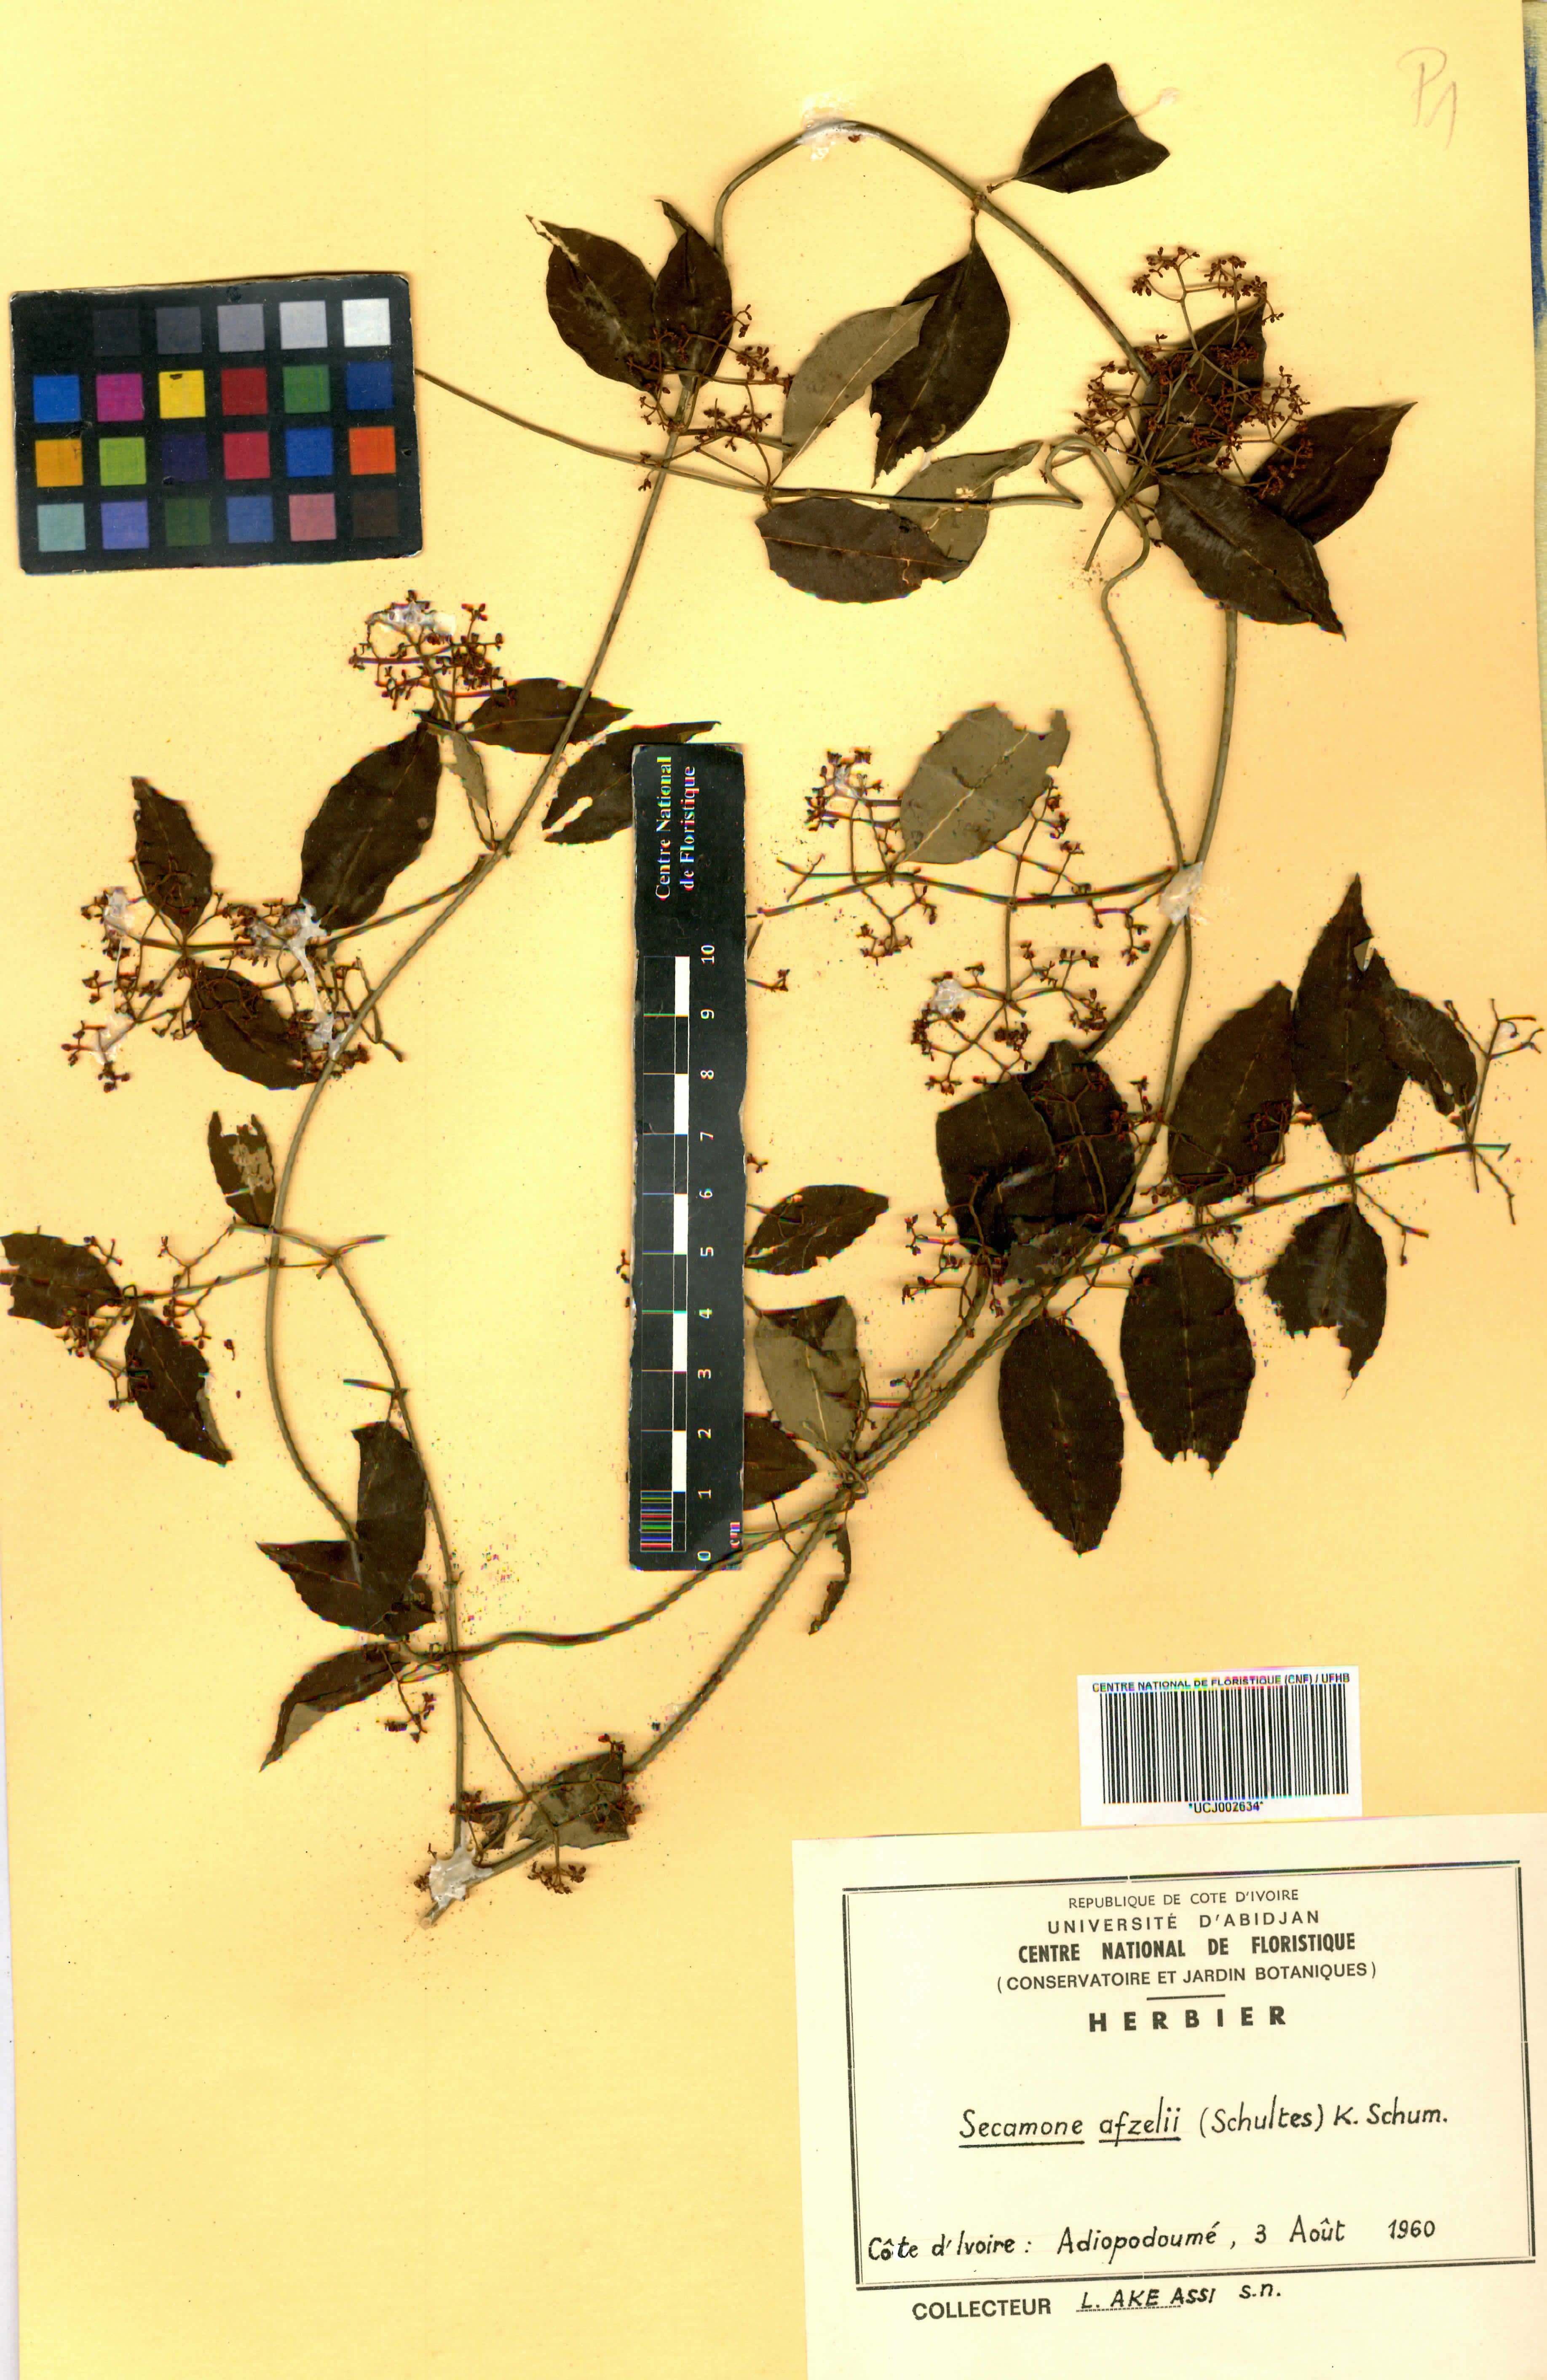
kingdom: Plantae
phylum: Tracheophyta
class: Magnoliopsida
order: Gentianales
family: Apocynaceae
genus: Secamone
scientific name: Secamone afzelii
